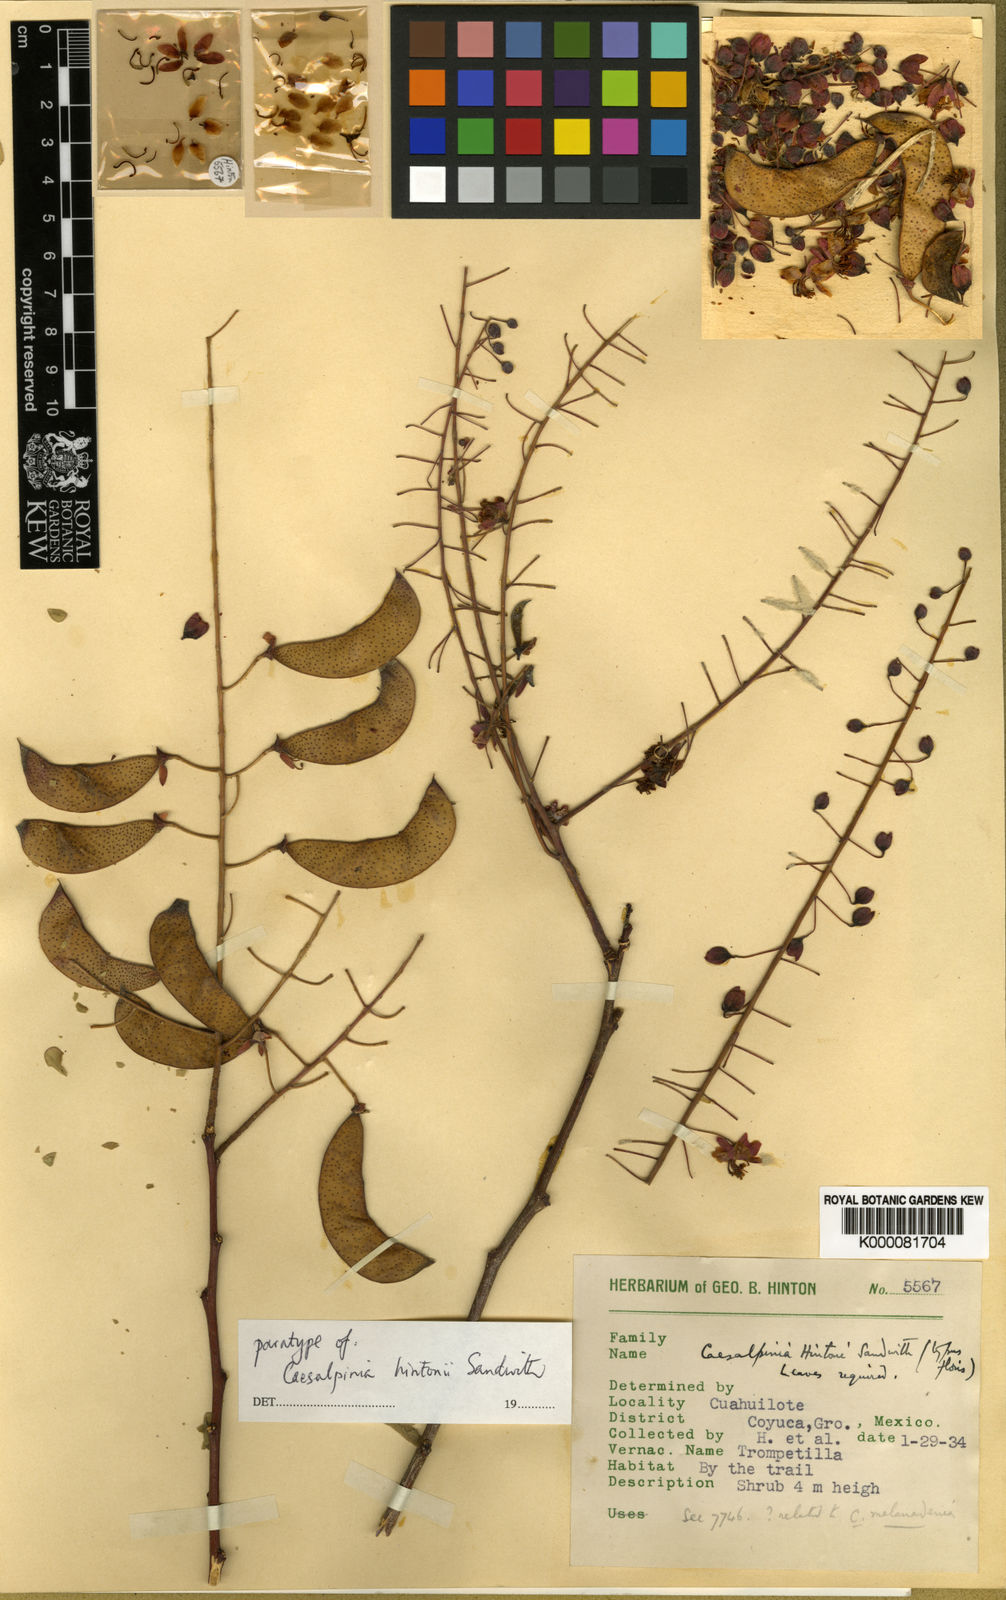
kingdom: Plantae
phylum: Tracheophyta
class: Magnoliopsida
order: Fabales
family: Fabaceae
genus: Erythrostemon
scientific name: Erythrostemon hintonii
